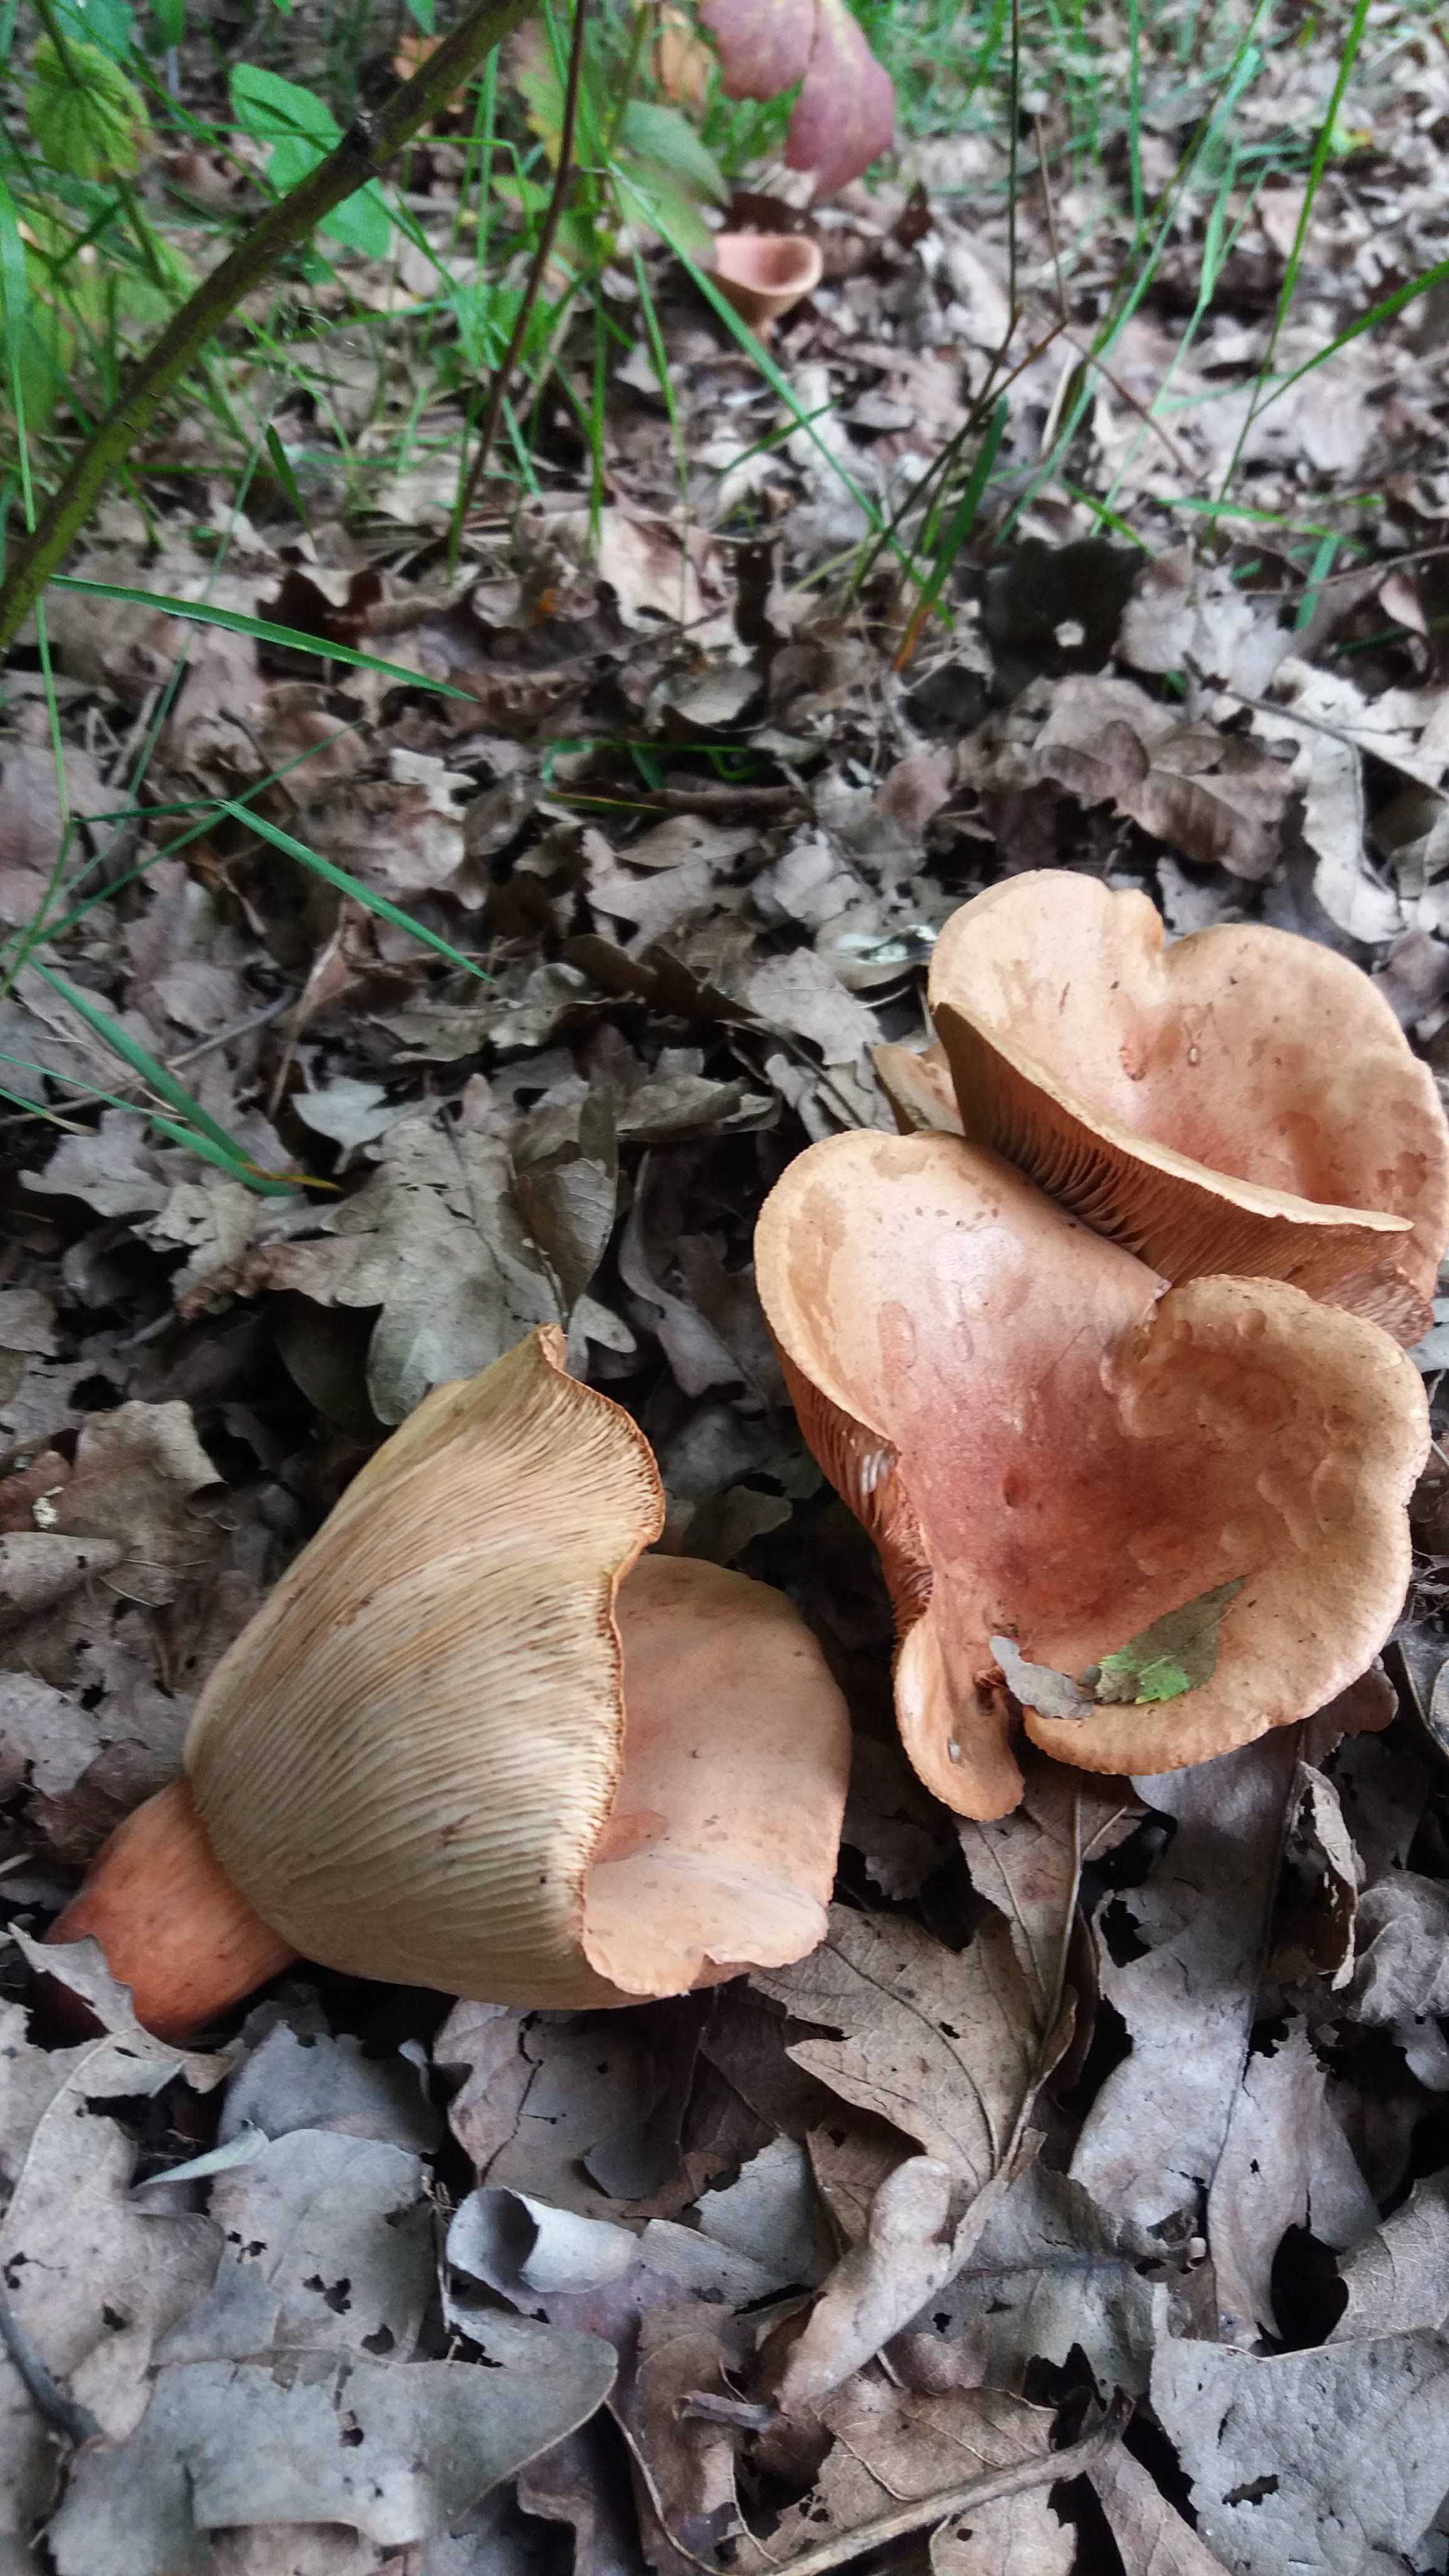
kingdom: Fungi
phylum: Basidiomycota
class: Agaricomycetes
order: Russulales
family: Russulaceae
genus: Lactarius
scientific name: Lactarius
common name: mælkehat
